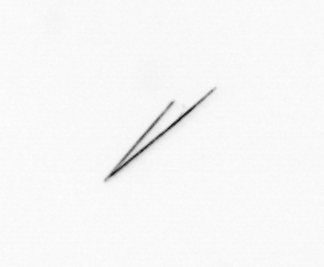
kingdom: Chromista
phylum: Ochrophyta
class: Bacillariophyceae
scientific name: Bacillariophyceae
